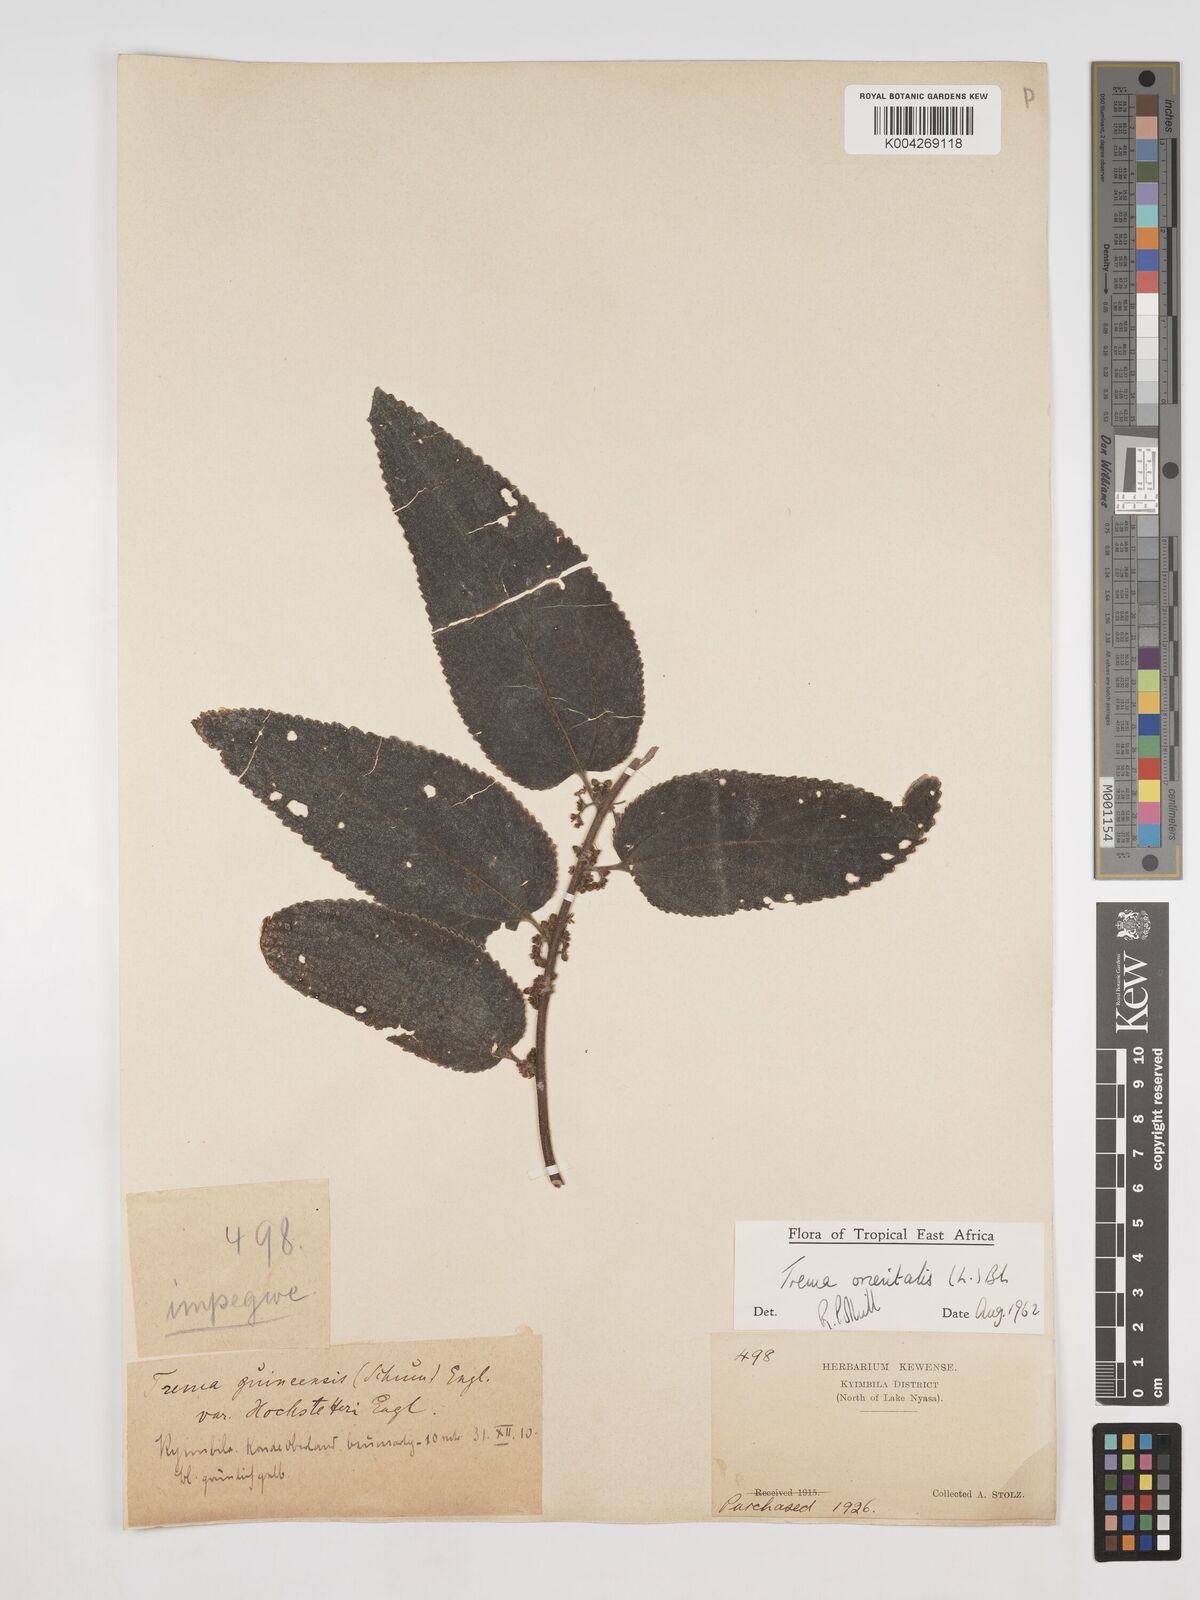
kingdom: Plantae
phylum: Tracheophyta
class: Magnoliopsida
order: Rosales
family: Cannabaceae
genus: Trema
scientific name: Trema orientale
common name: Indian charcoal tree
